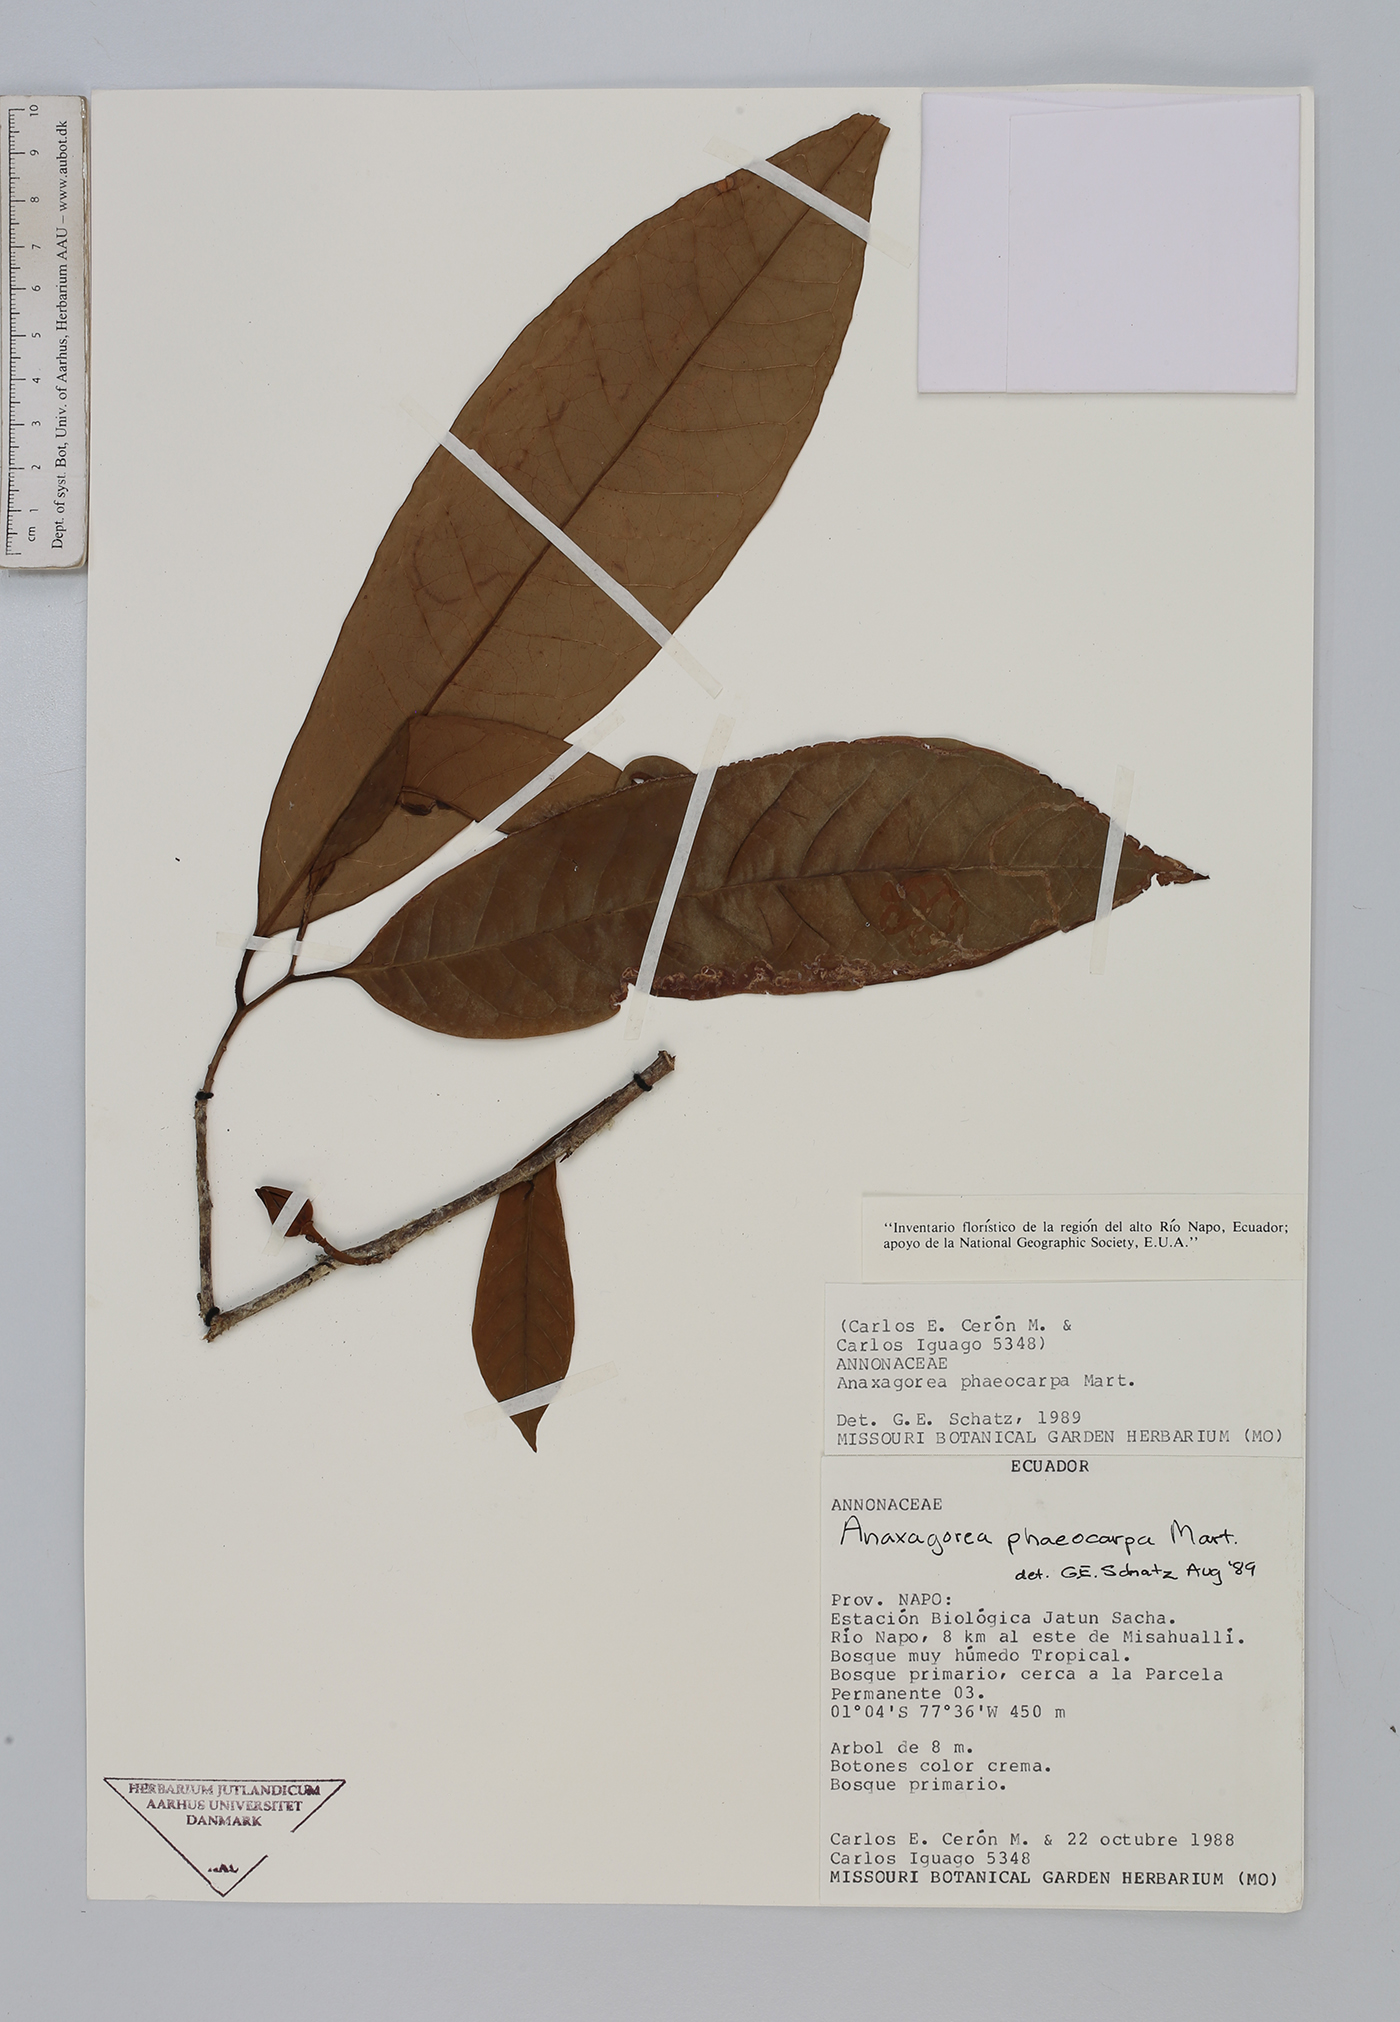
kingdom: Plantae
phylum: Tracheophyta
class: Magnoliopsida
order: Magnoliales
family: Annonaceae
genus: Anaxagorea
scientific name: Anaxagorea phaeocarpa
